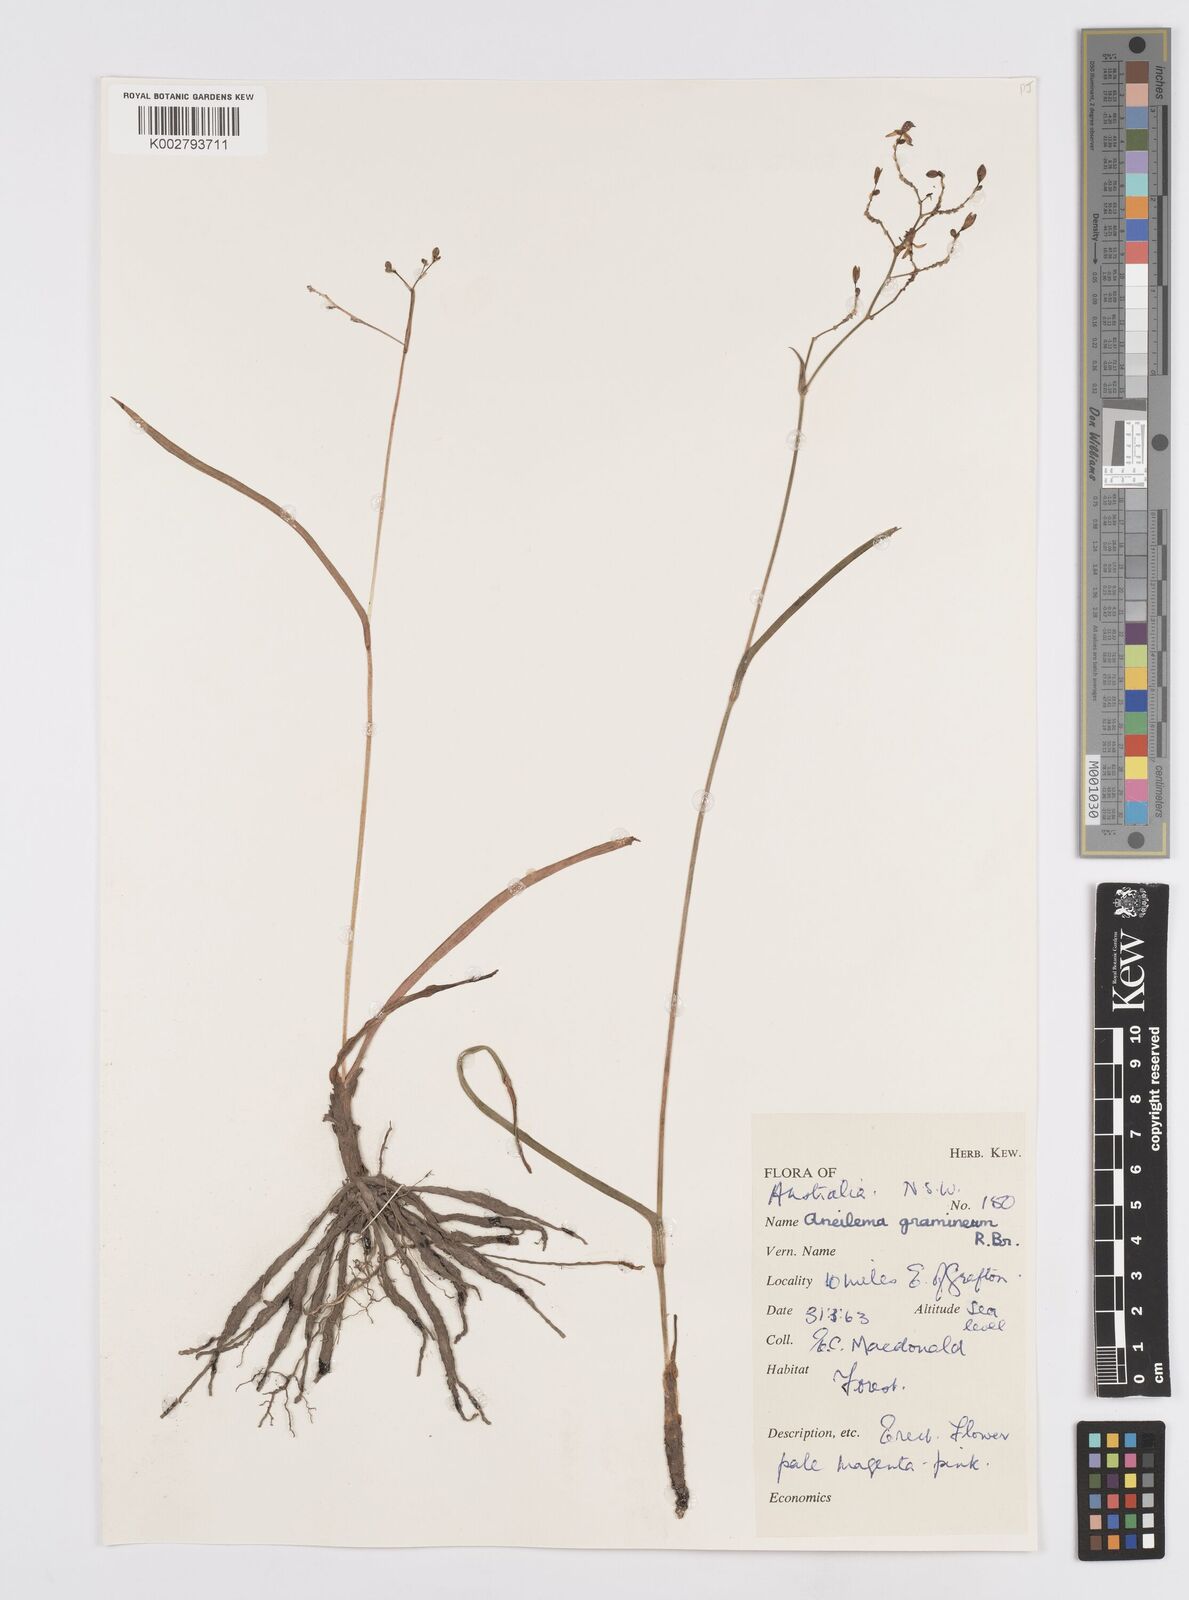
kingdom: Plantae
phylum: Tracheophyta
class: Liliopsida
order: Commelinales
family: Commelinaceae
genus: Murdannia
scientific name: Murdannia graminea
